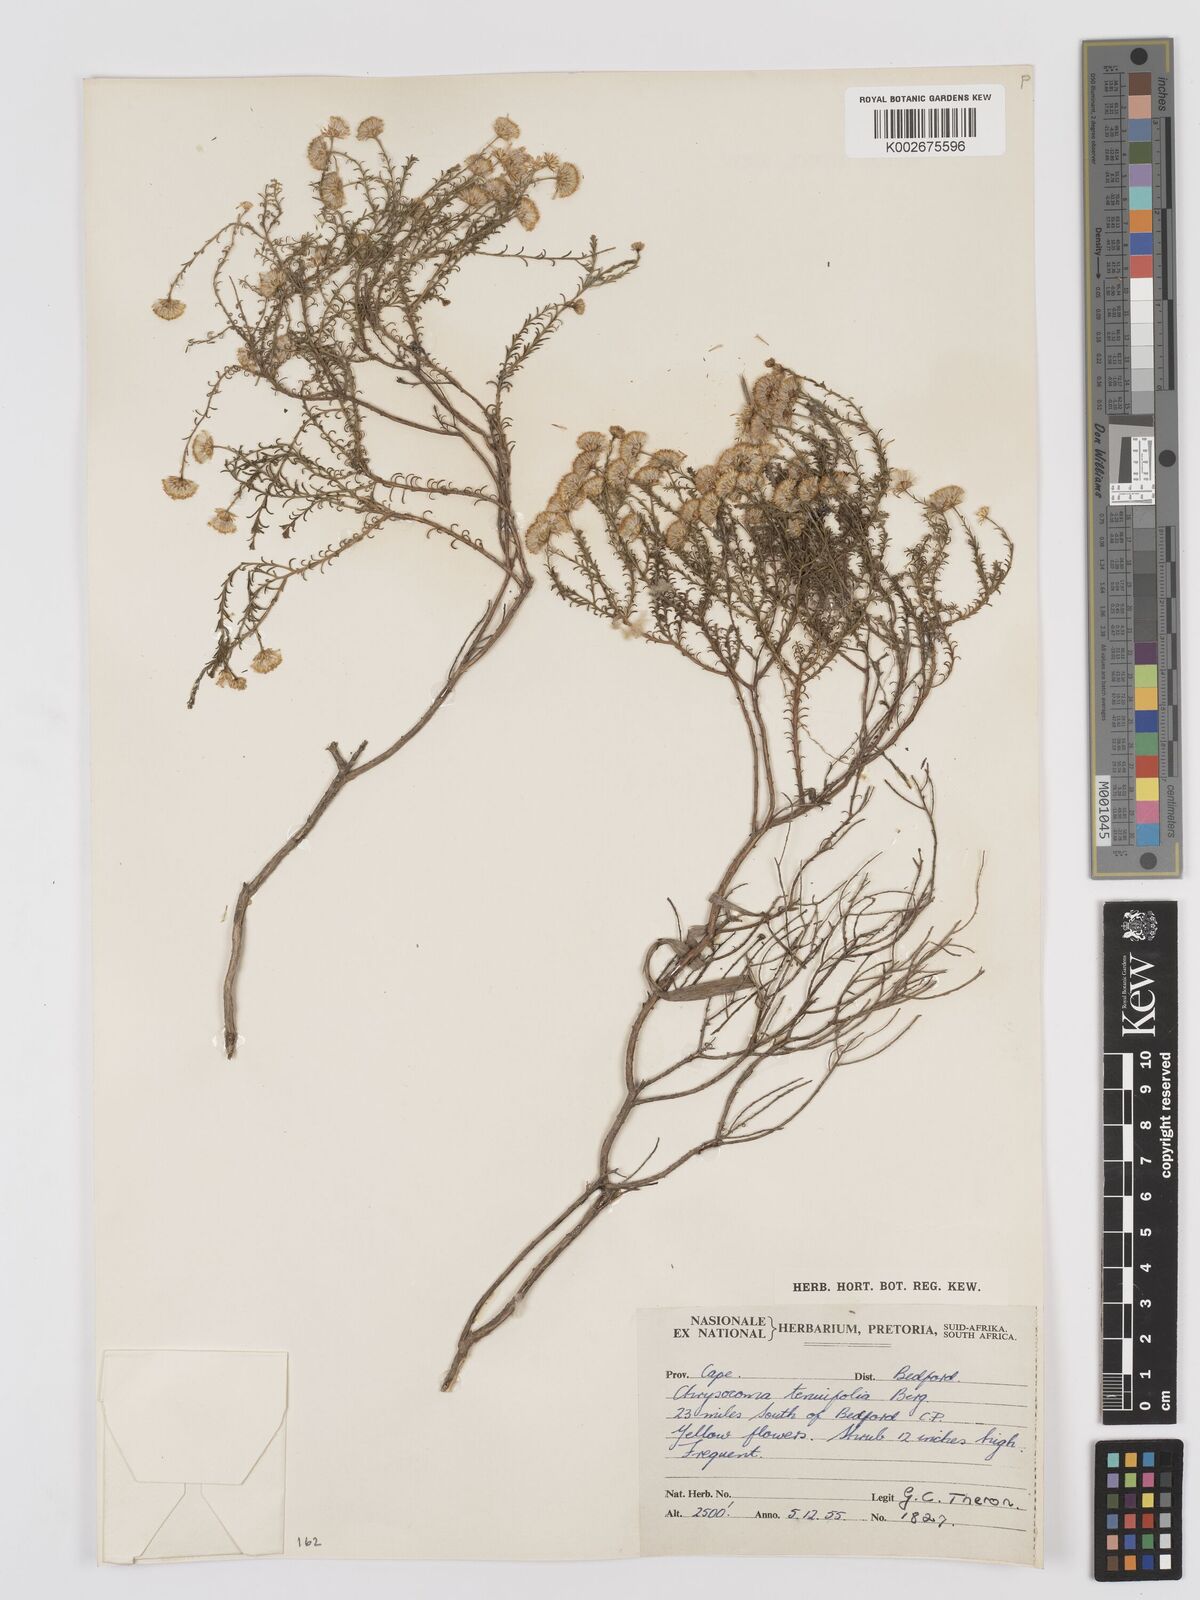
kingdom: Plantae
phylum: Tracheophyta
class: Magnoliopsida
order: Asterales
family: Asteraceae
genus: Chrysocoma
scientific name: Chrysocoma ciliata
